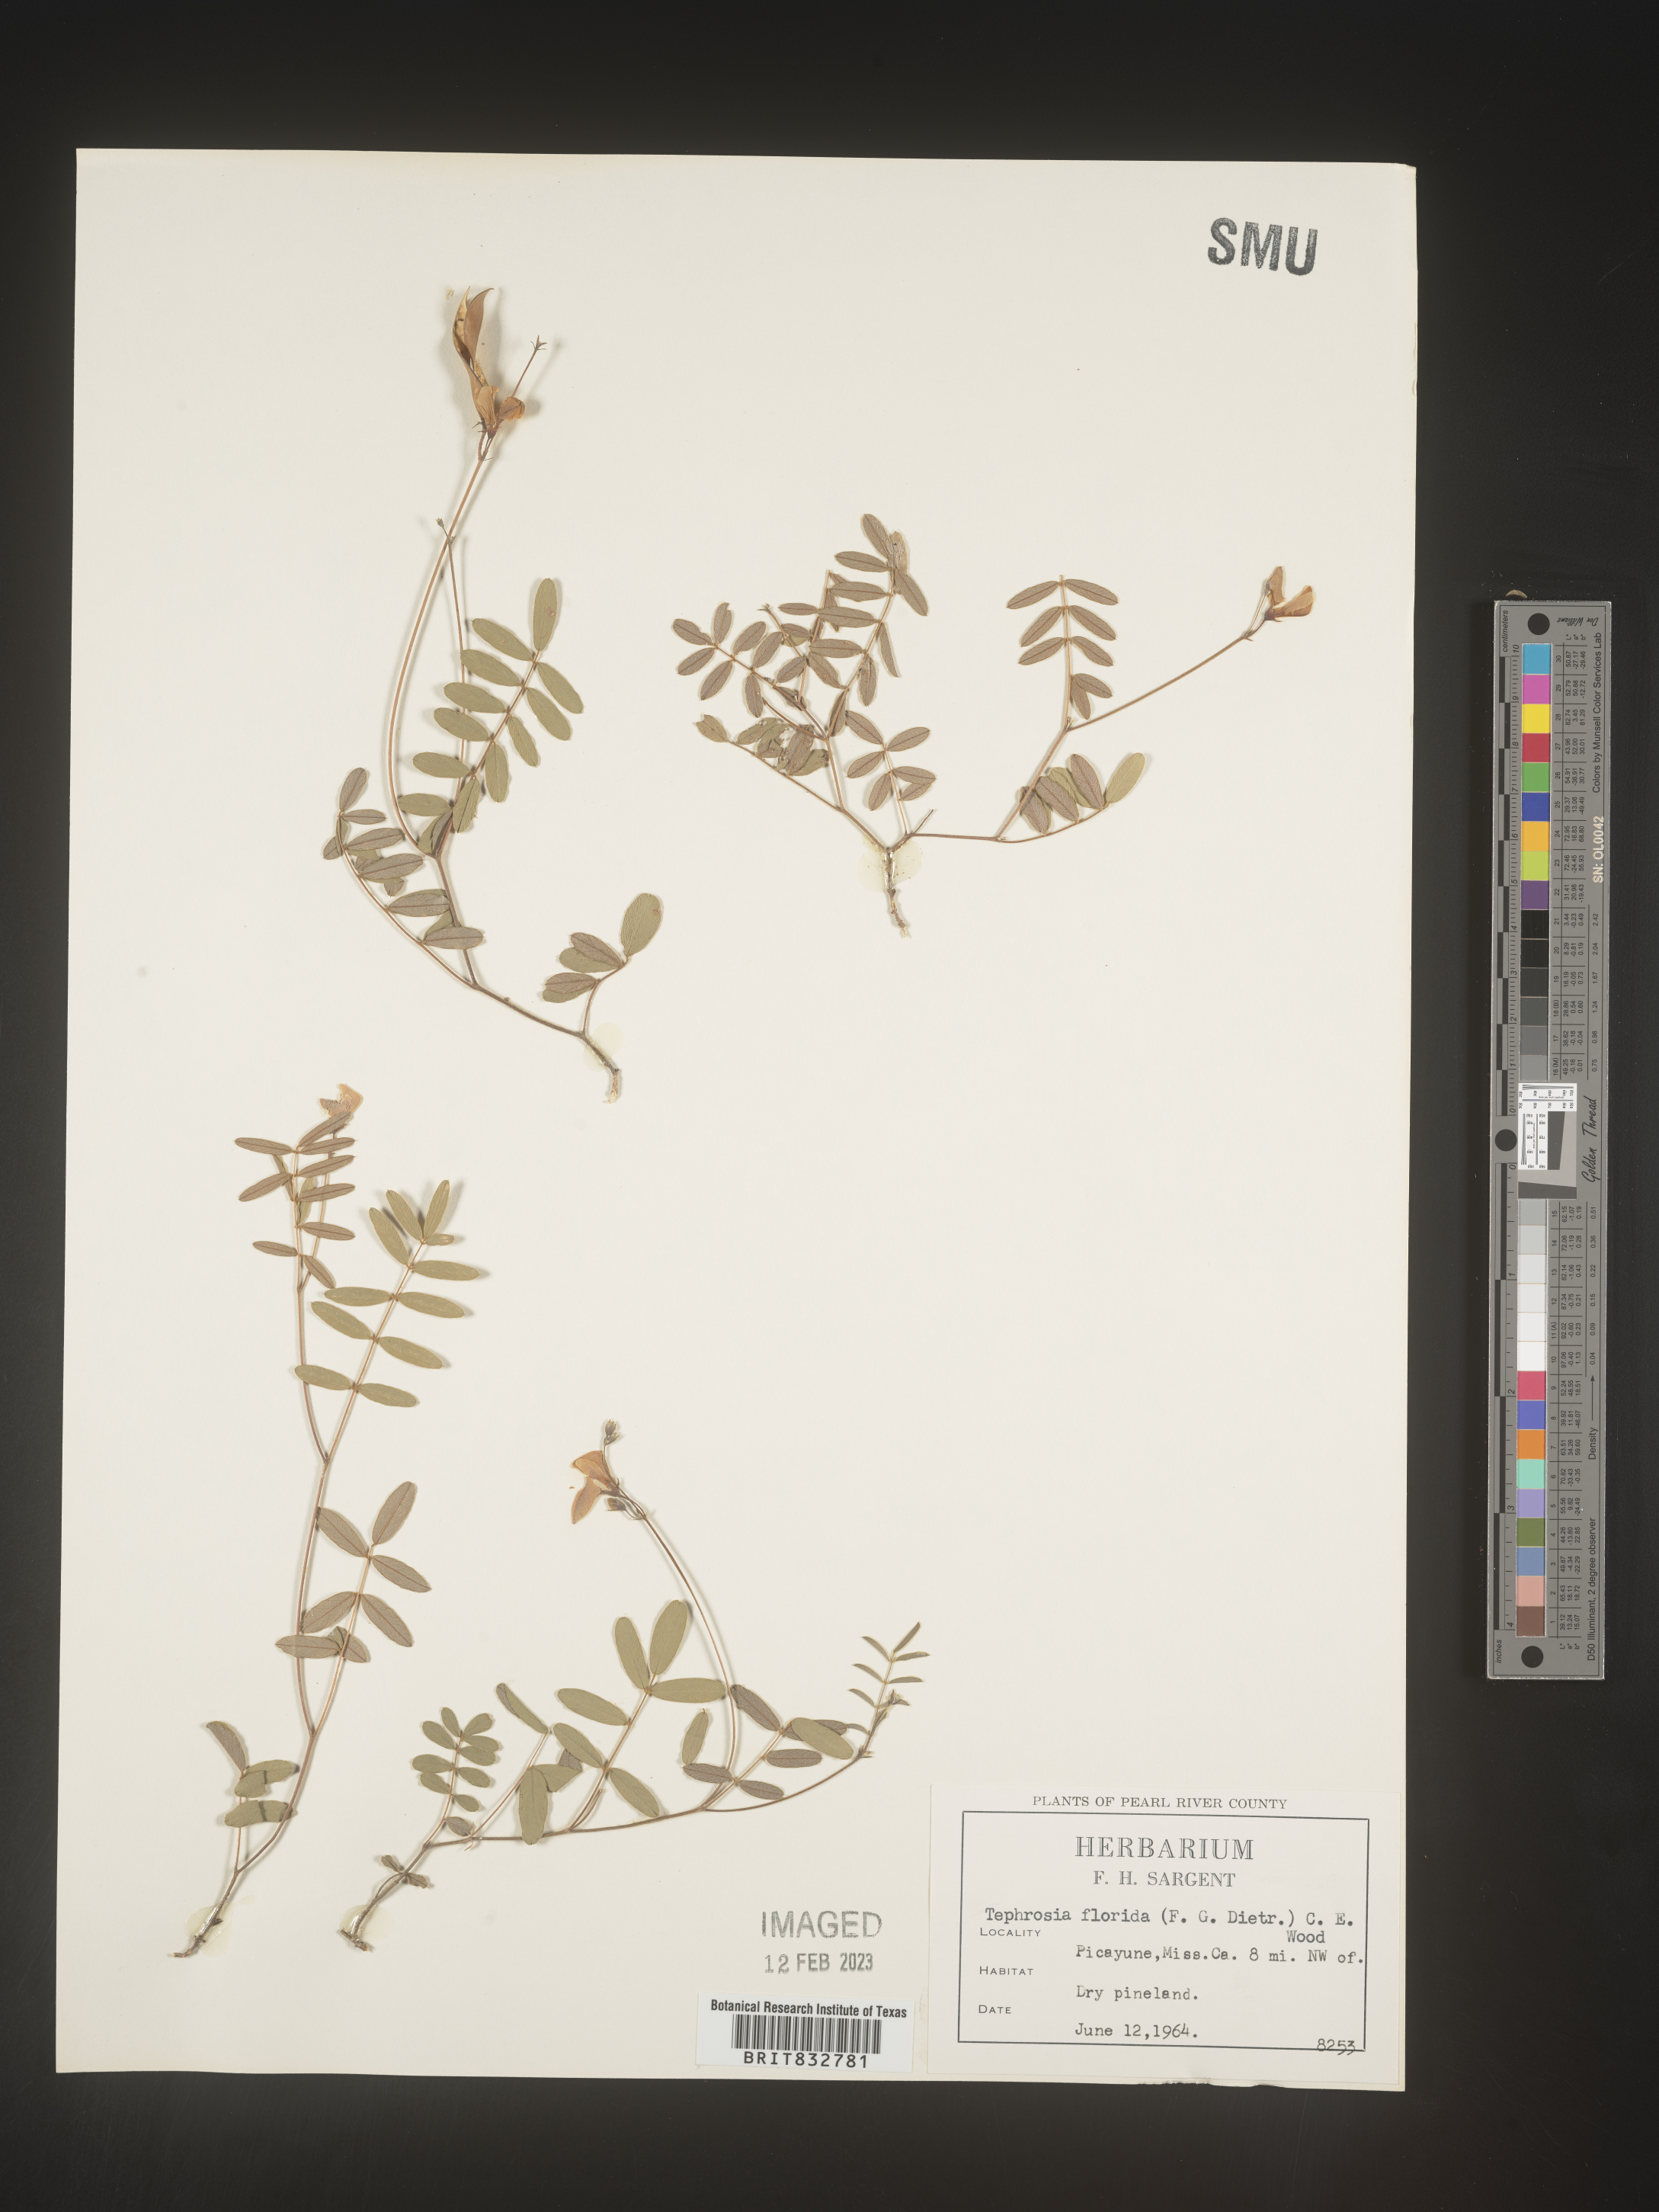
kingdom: Plantae
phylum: Tracheophyta
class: Magnoliopsida
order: Fabales
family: Fabaceae
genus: Tephrosia
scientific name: Tephrosia florida
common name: Florida hoary-pea
